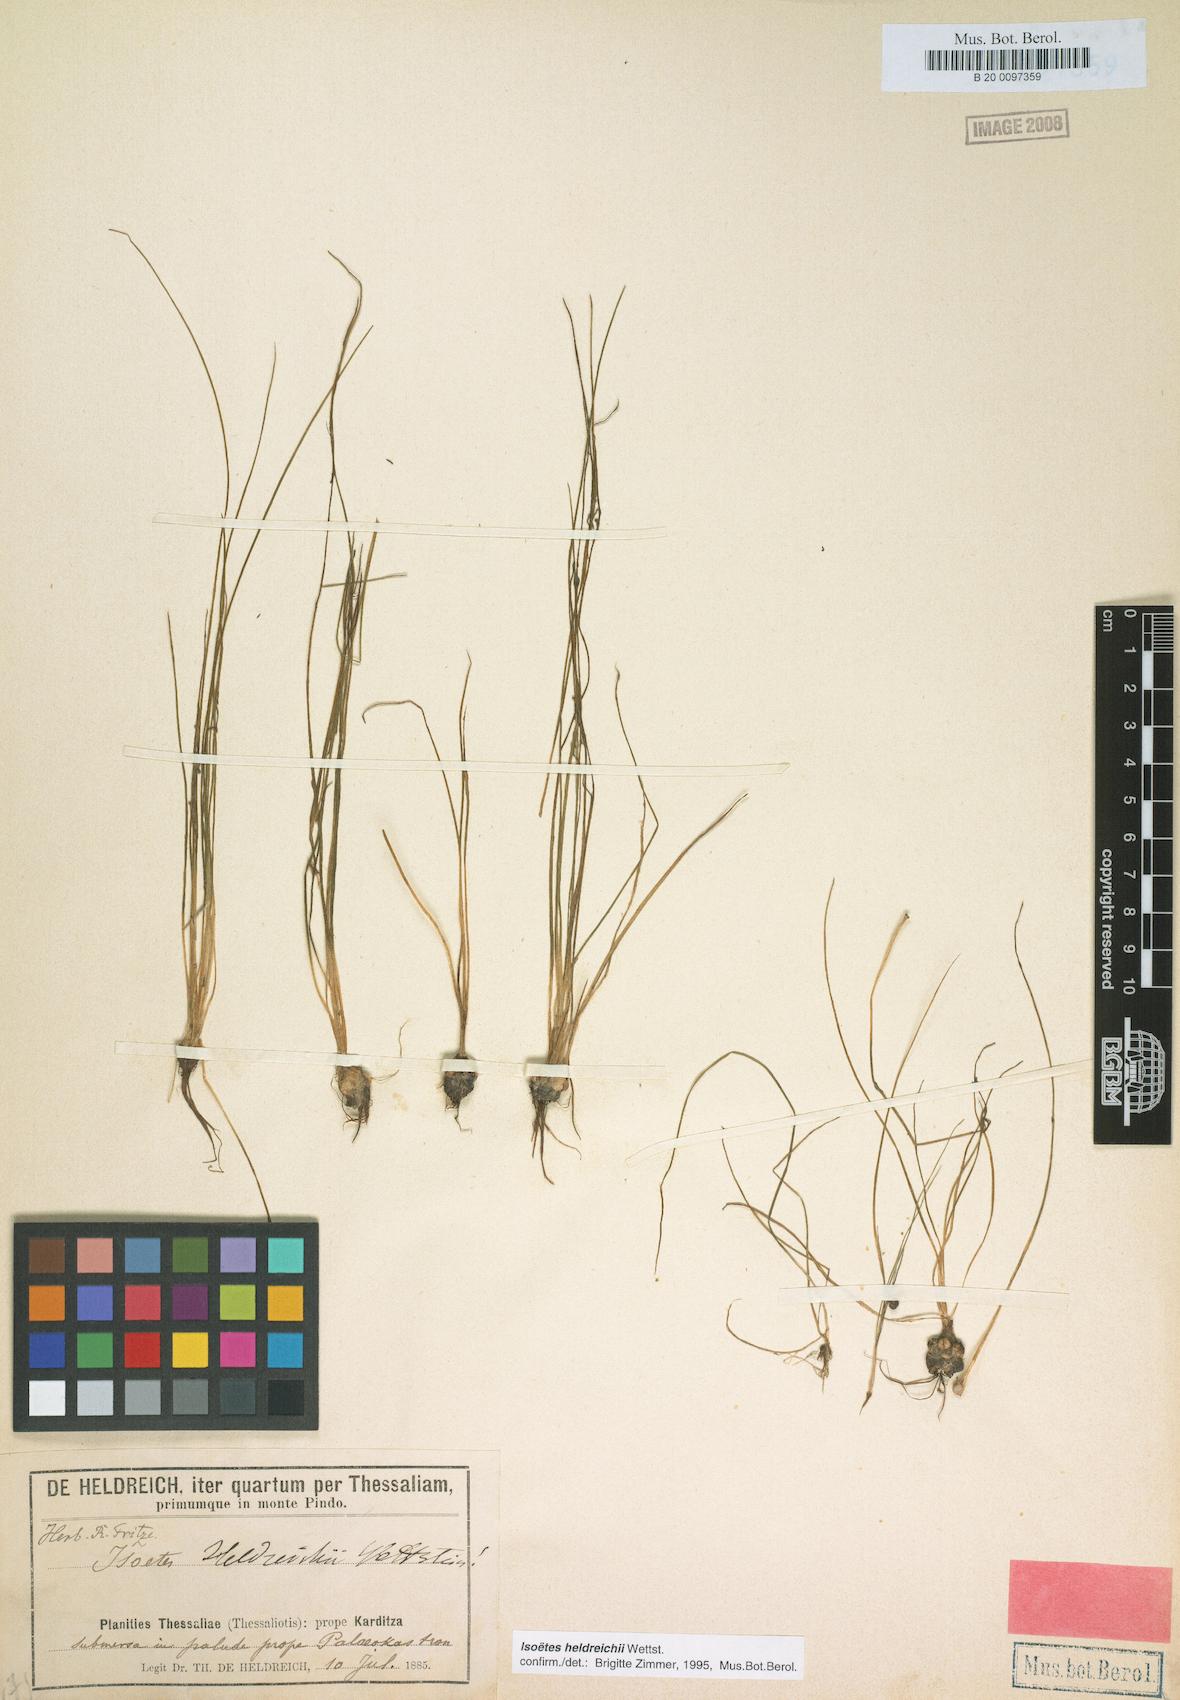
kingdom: Plantae
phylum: Tracheophyta
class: Lycopodiopsida
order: Isoetales
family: Isoetaceae
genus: Isoetes
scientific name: Isoetes heldreichii
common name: Pindus quillwort
